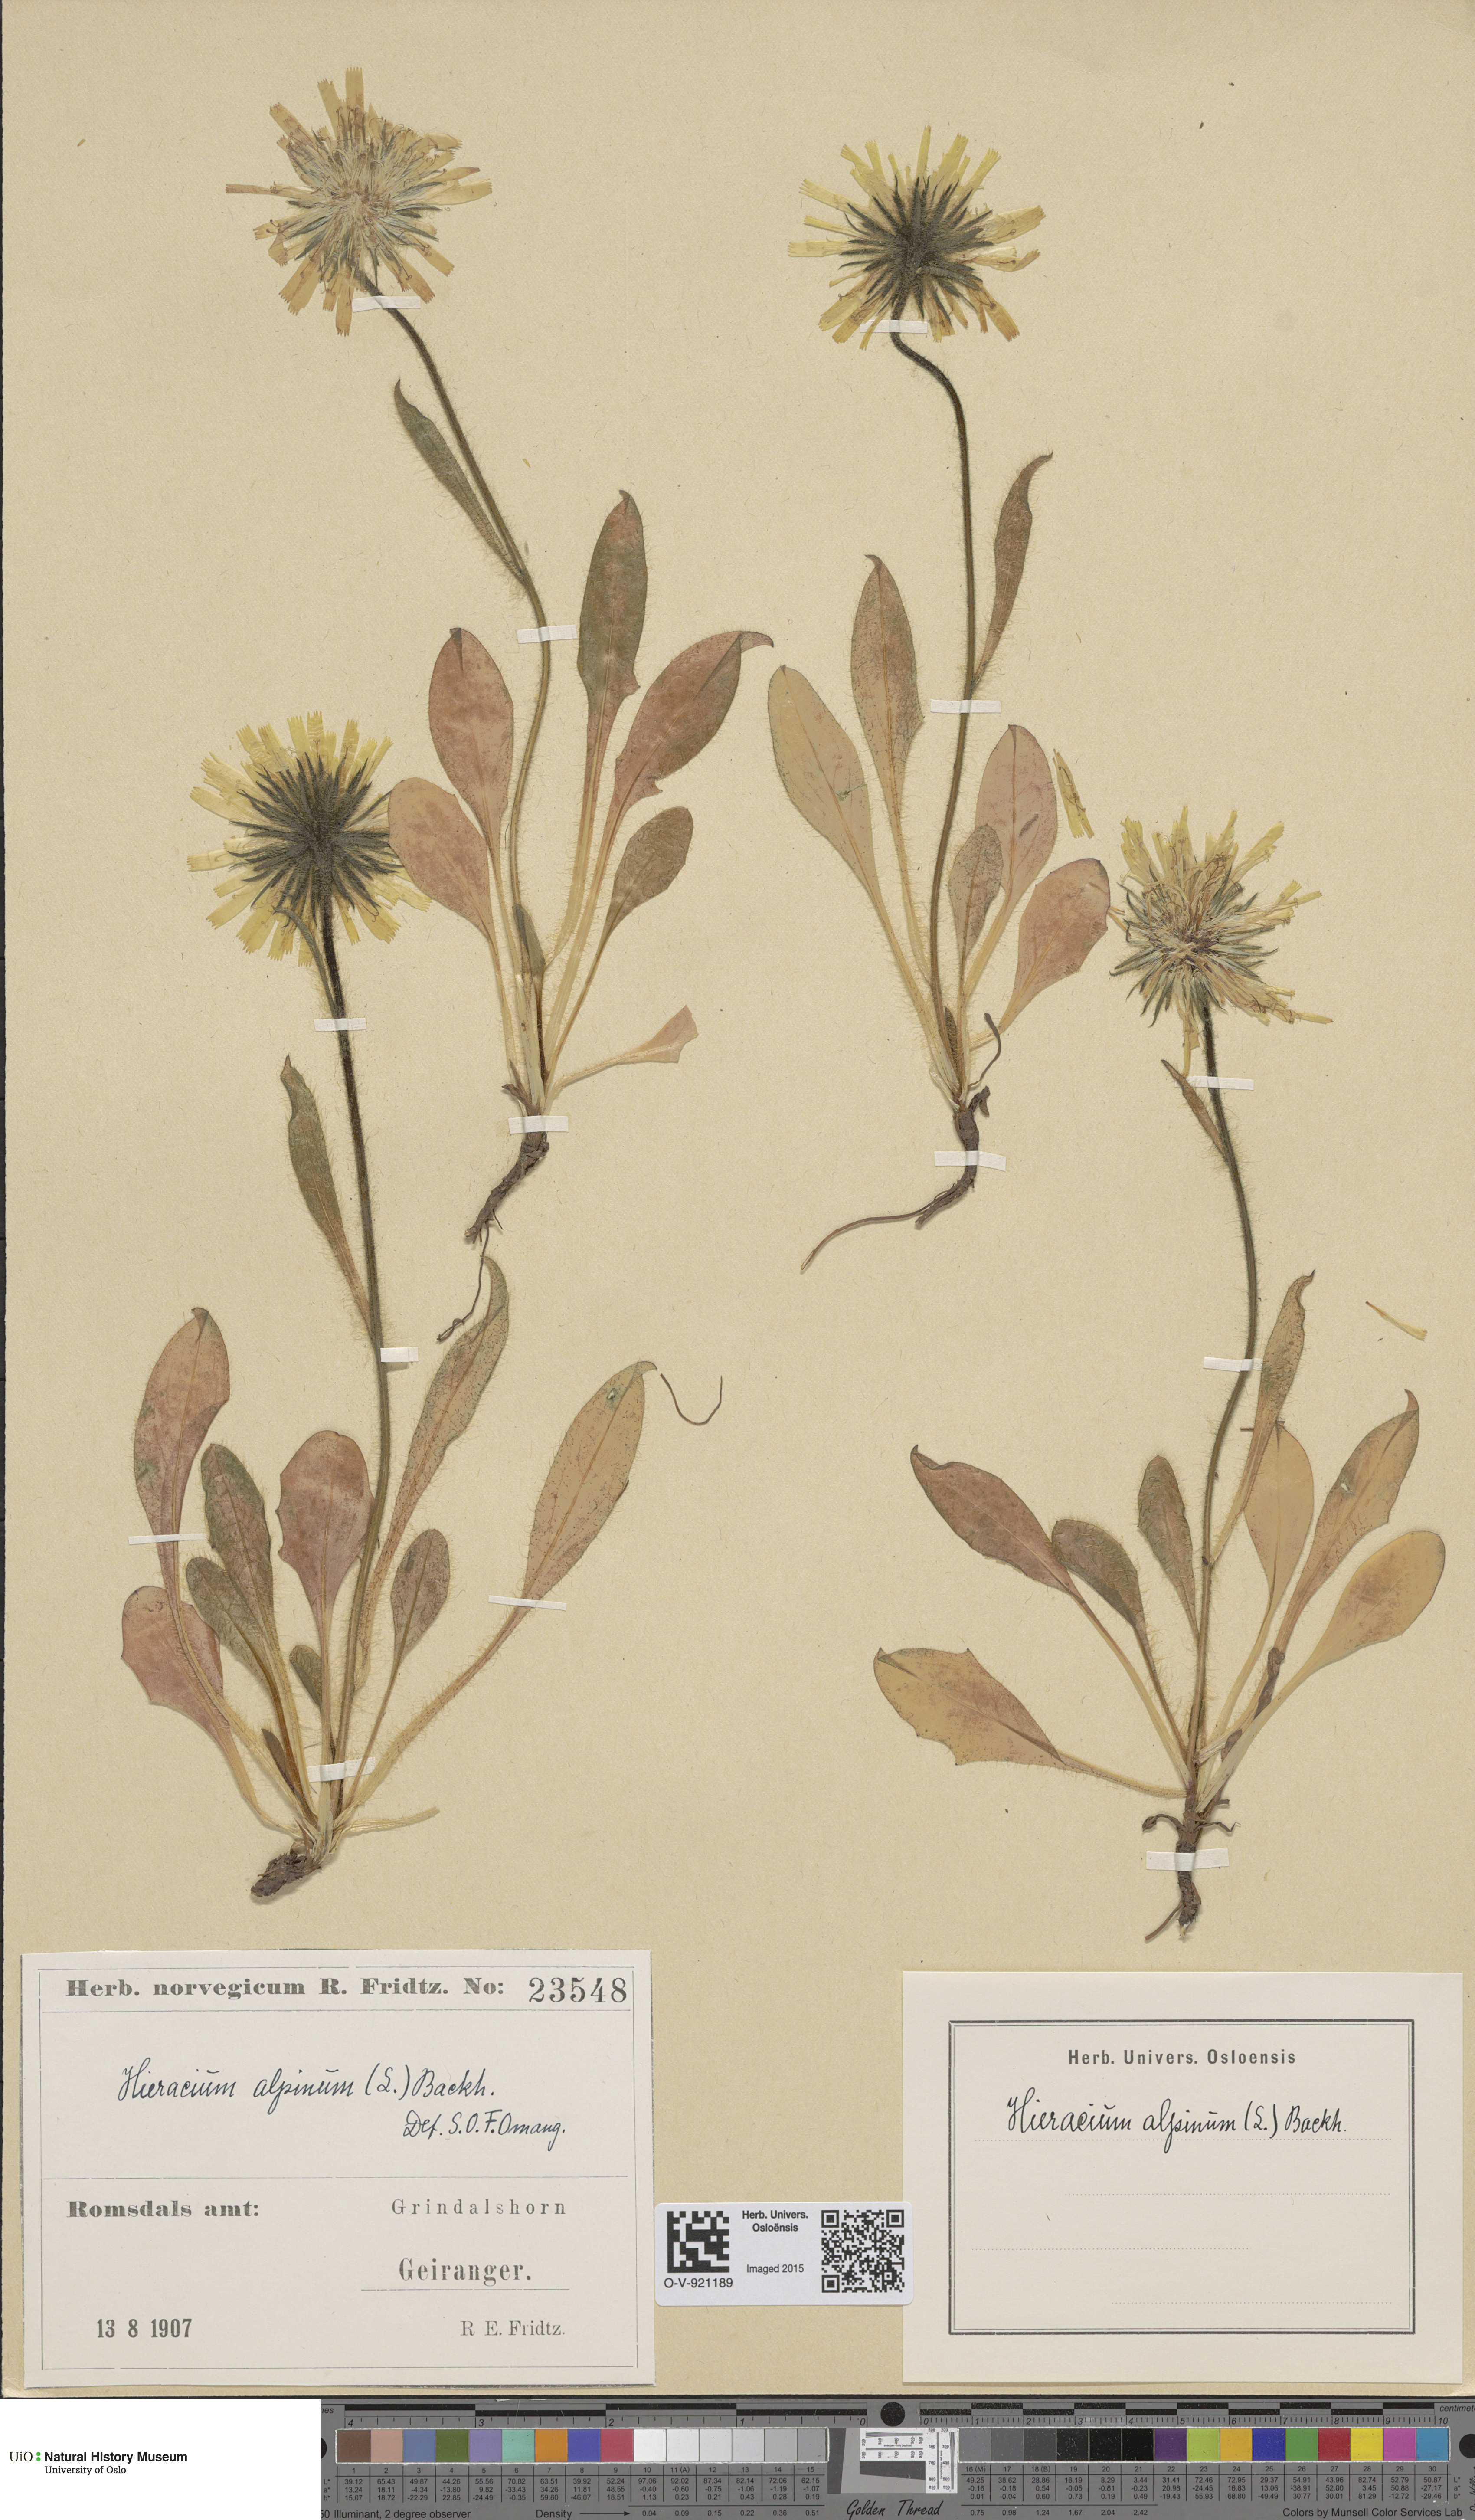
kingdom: Plantae
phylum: Tracheophyta
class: Magnoliopsida
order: Asterales
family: Asteraceae
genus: Hieracium
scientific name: Hieracium alpinum
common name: Alpine hawkweed
